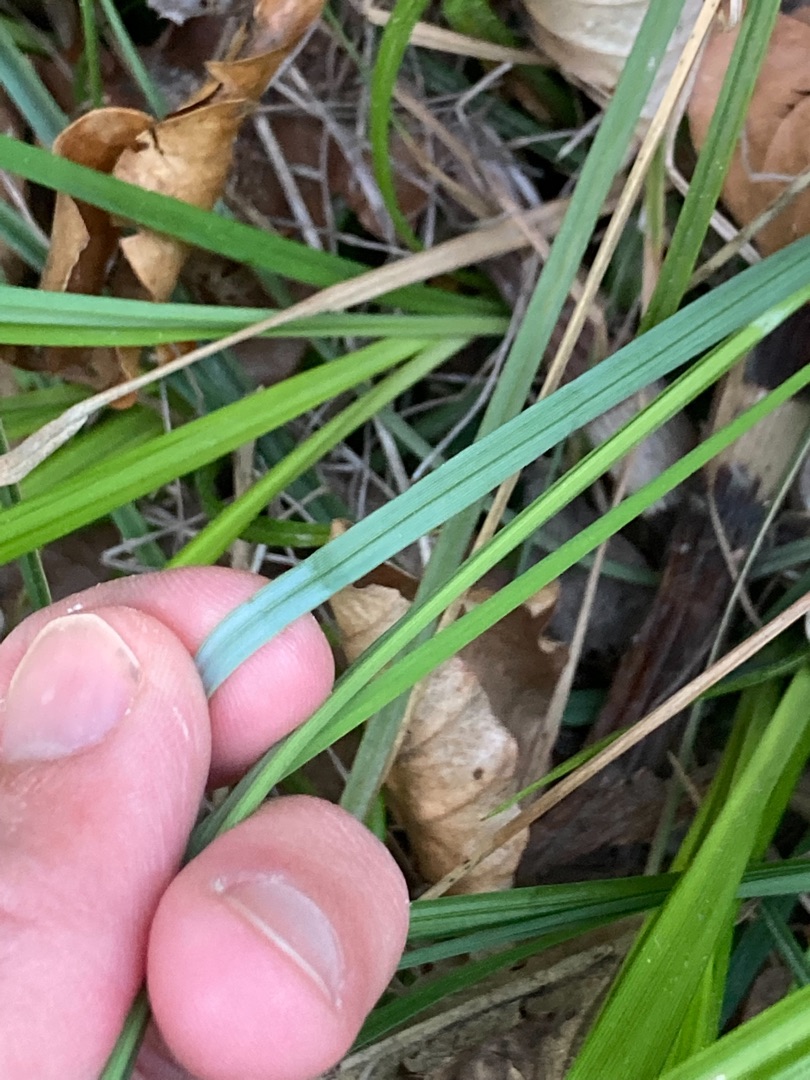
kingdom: Plantae
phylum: Tracheophyta
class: Liliopsida
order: Poales
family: Cyperaceae
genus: Carex
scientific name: Carex flacca
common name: Blågrøn star
